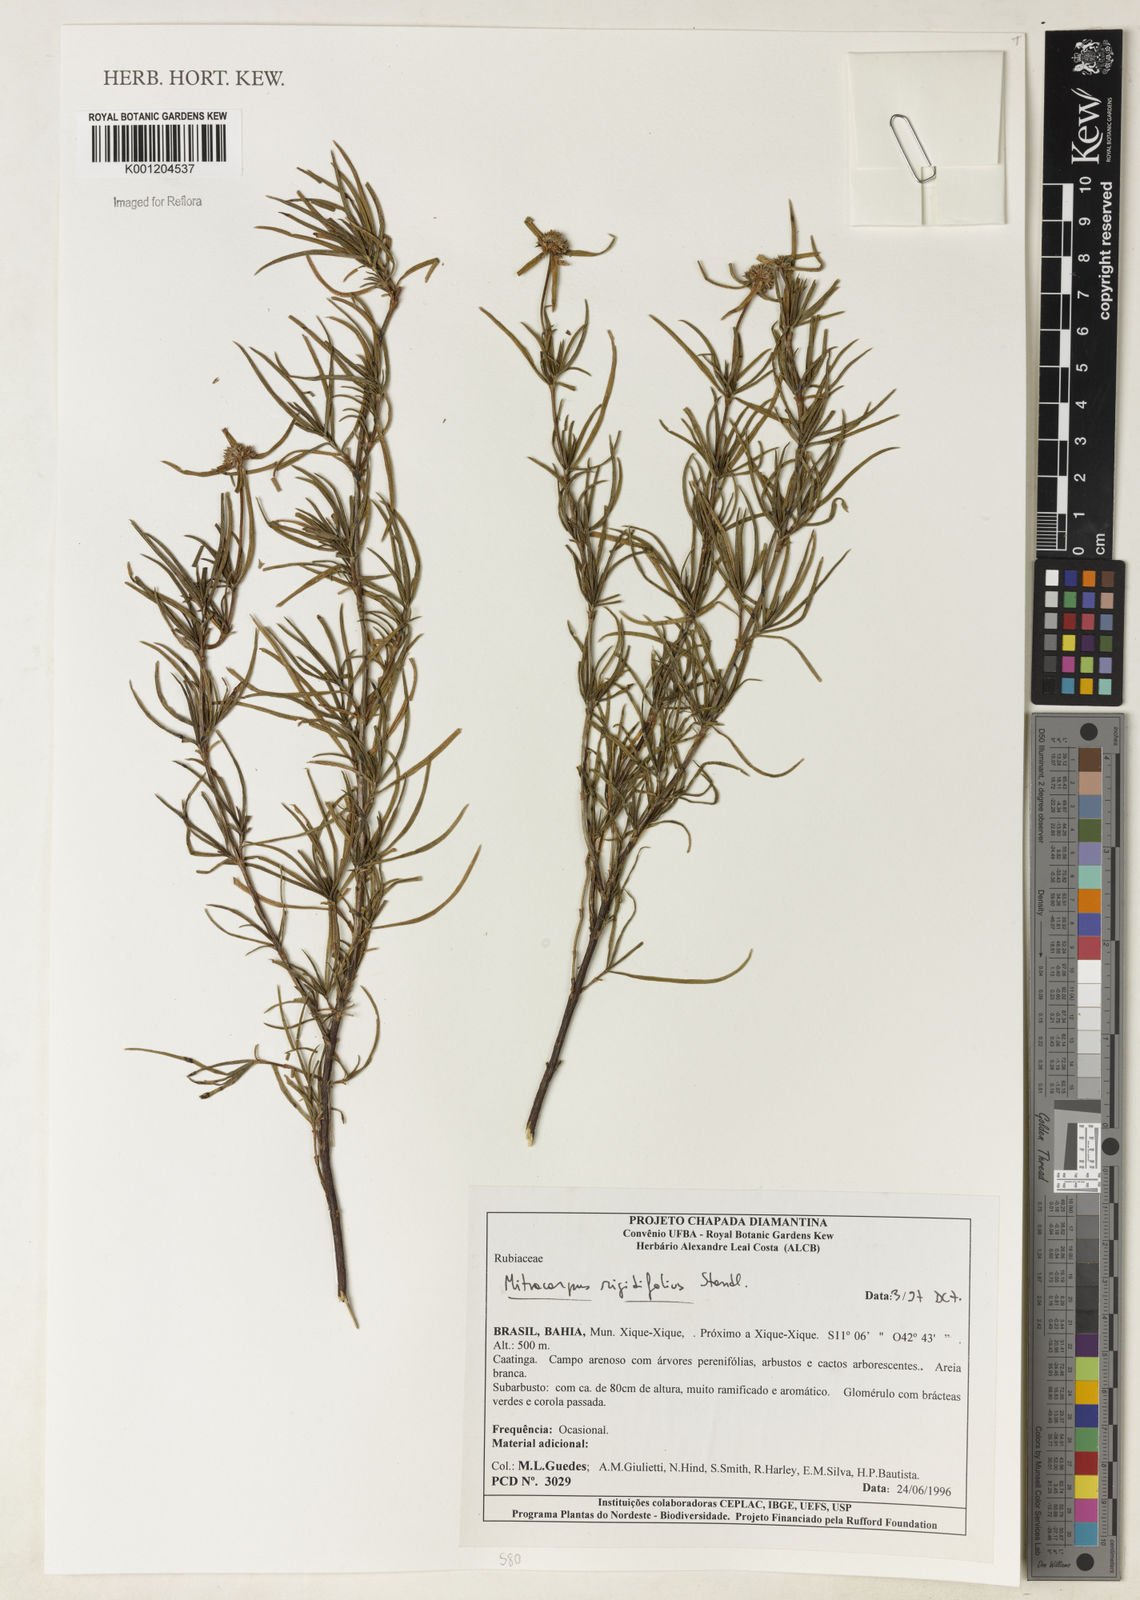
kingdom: Plantae
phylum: Tracheophyta
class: Magnoliopsida
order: Gentianales
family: Rubiaceae
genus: Mitracarpus
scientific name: Mitracarpus rigidifolius
